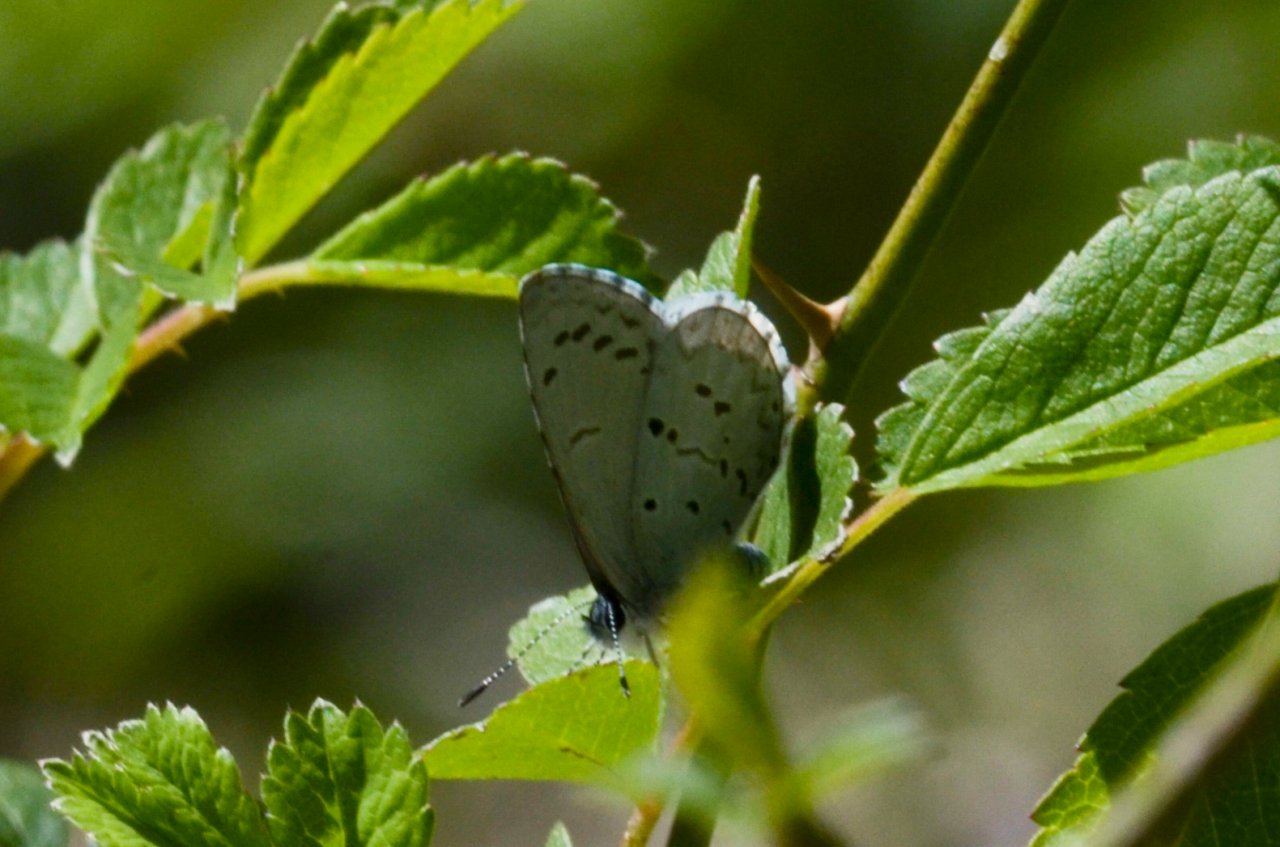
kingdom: Animalia
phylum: Arthropoda
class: Insecta
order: Lepidoptera
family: Lycaenidae
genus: Celastrina
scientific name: Celastrina ladon
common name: Spring Azure
